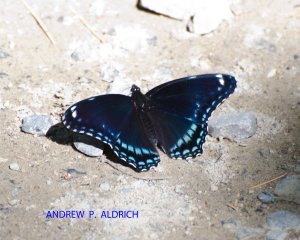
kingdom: Animalia
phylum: Arthropoda
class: Insecta
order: Lepidoptera
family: Nymphalidae
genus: Limenitis
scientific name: Limenitis astyanax
